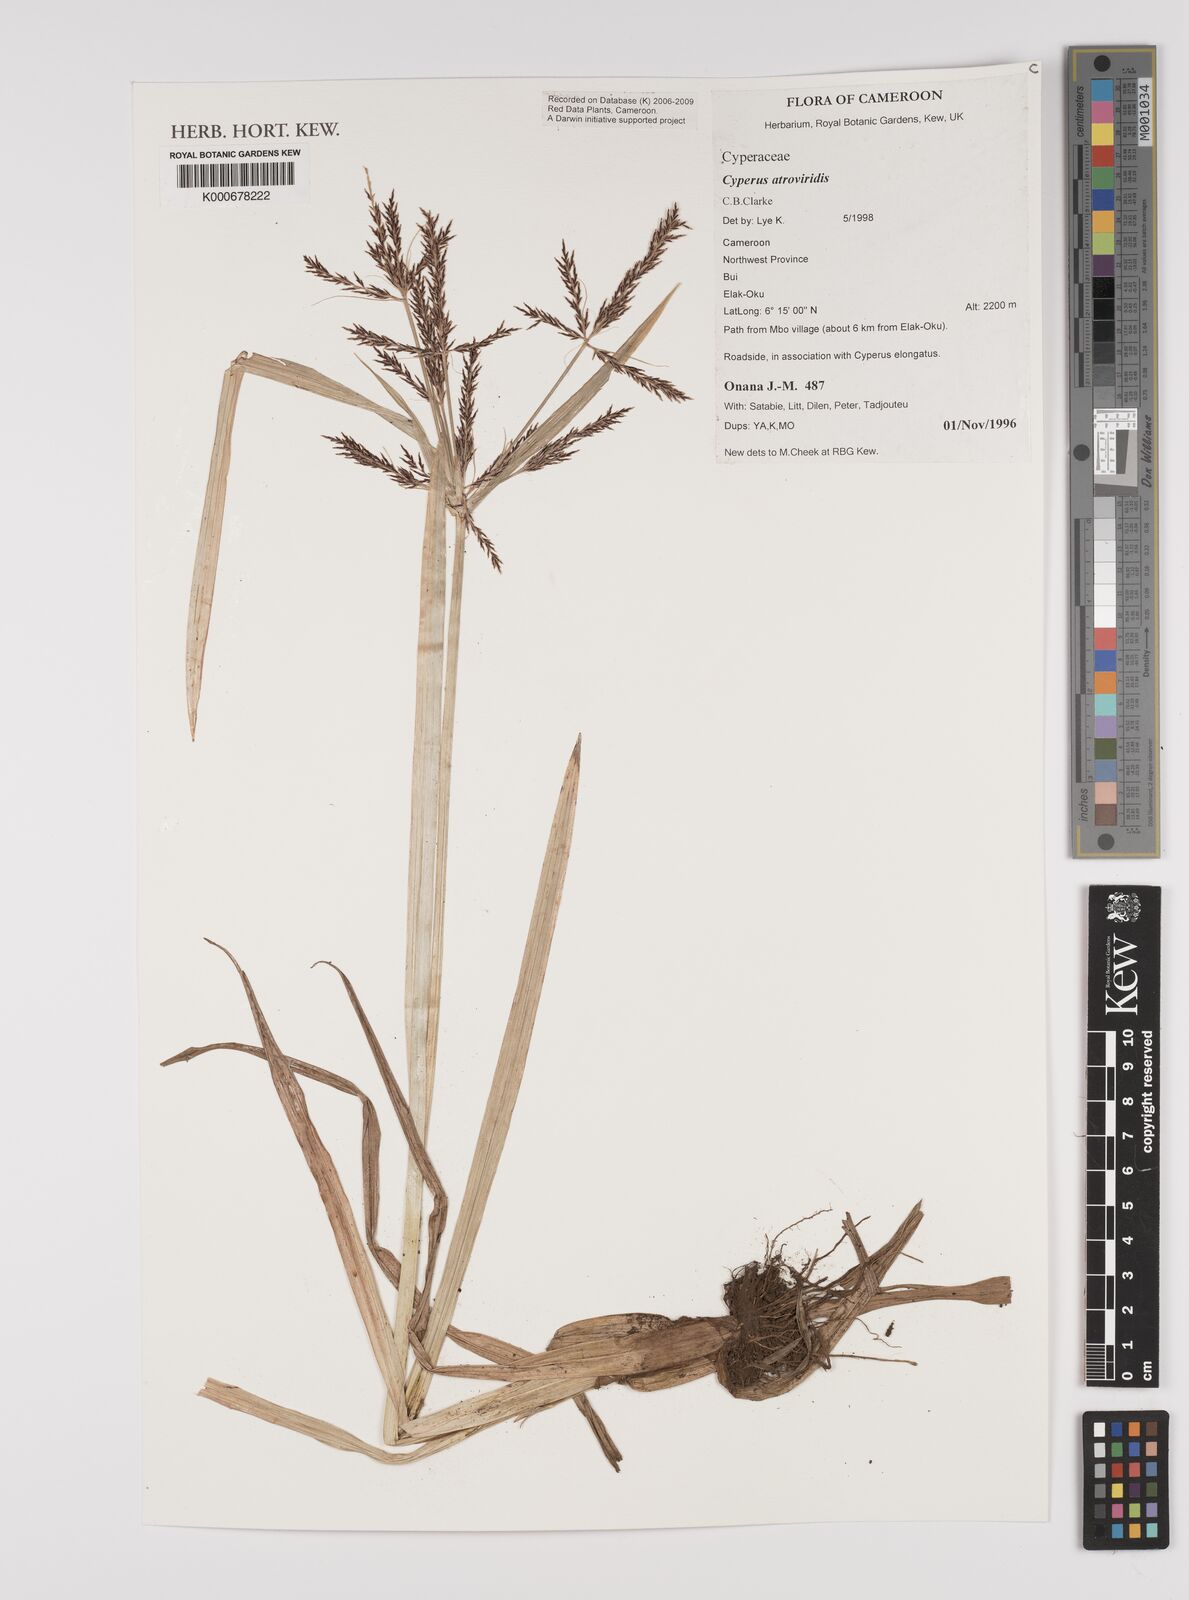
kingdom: Plantae
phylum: Tracheophyta
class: Liliopsida
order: Poales
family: Cyperaceae
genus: Cyperus
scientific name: Cyperus aterrimus
